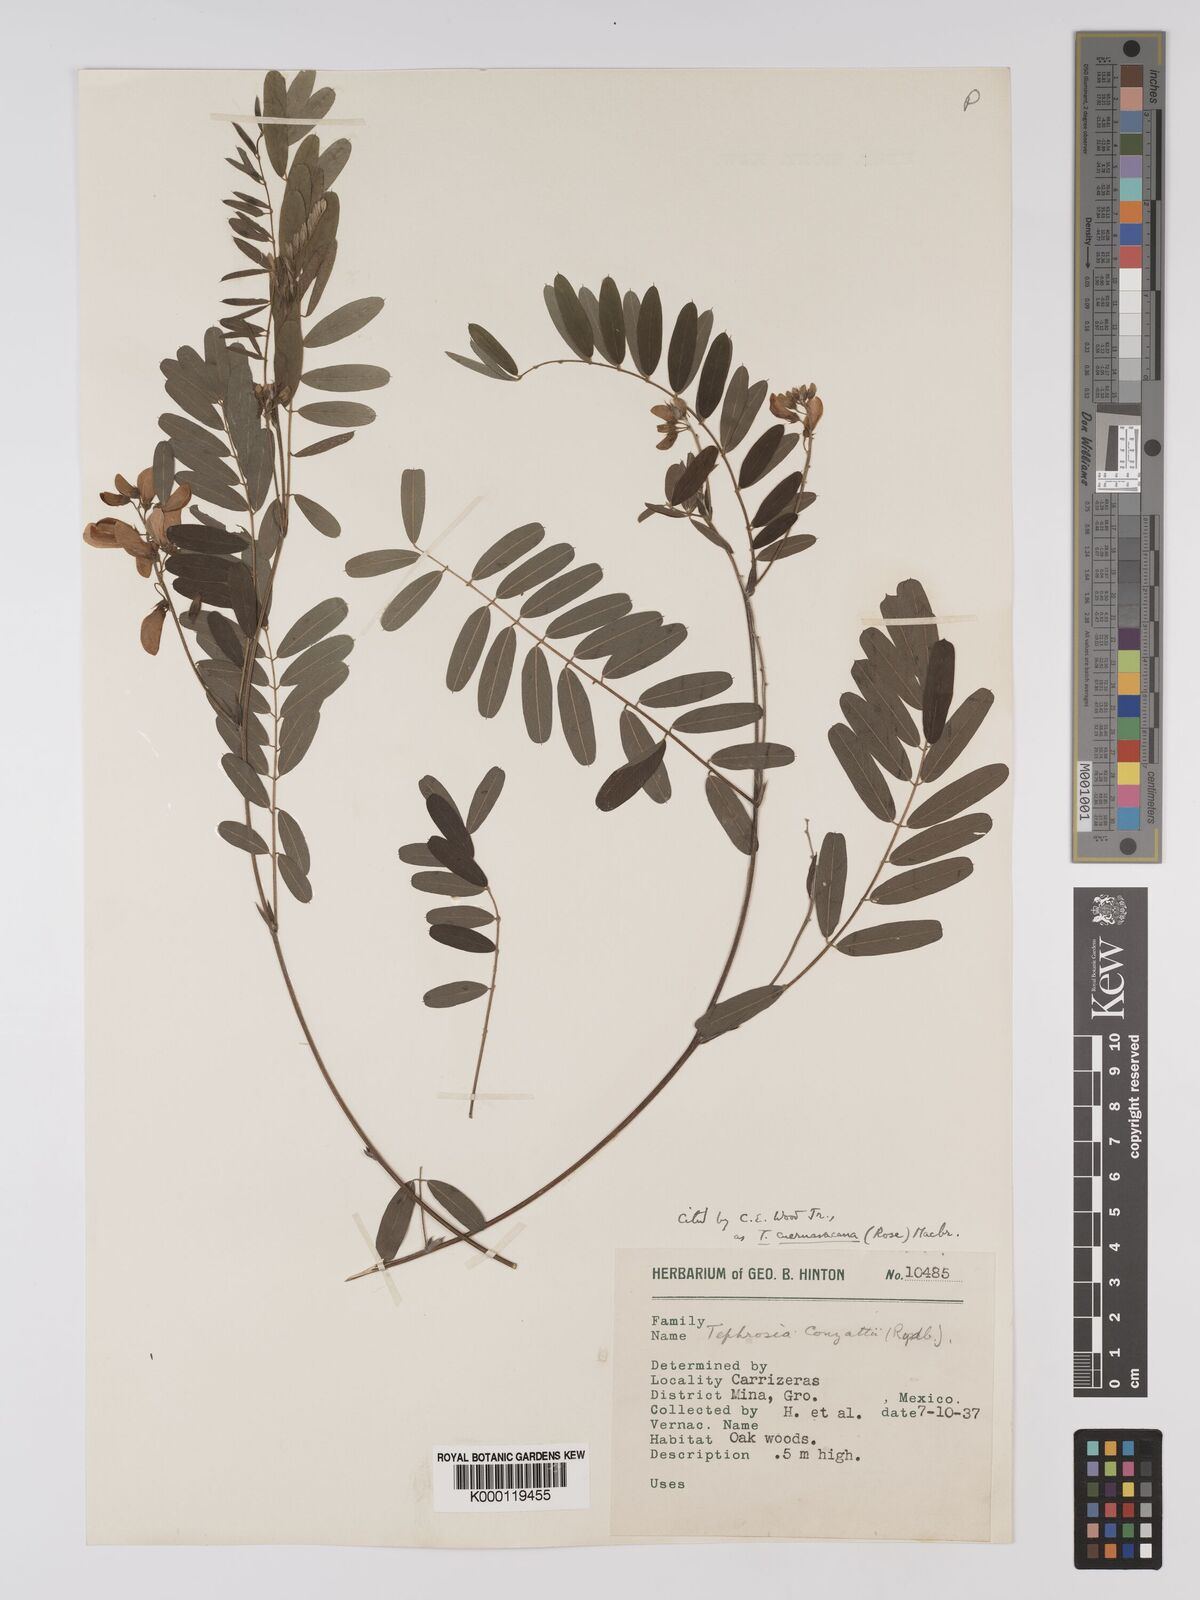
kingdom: Plantae
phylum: Tracheophyta
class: Magnoliopsida
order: Fabales
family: Fabaceae
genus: Tephrosia
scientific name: Tephrosia cuernavacana
